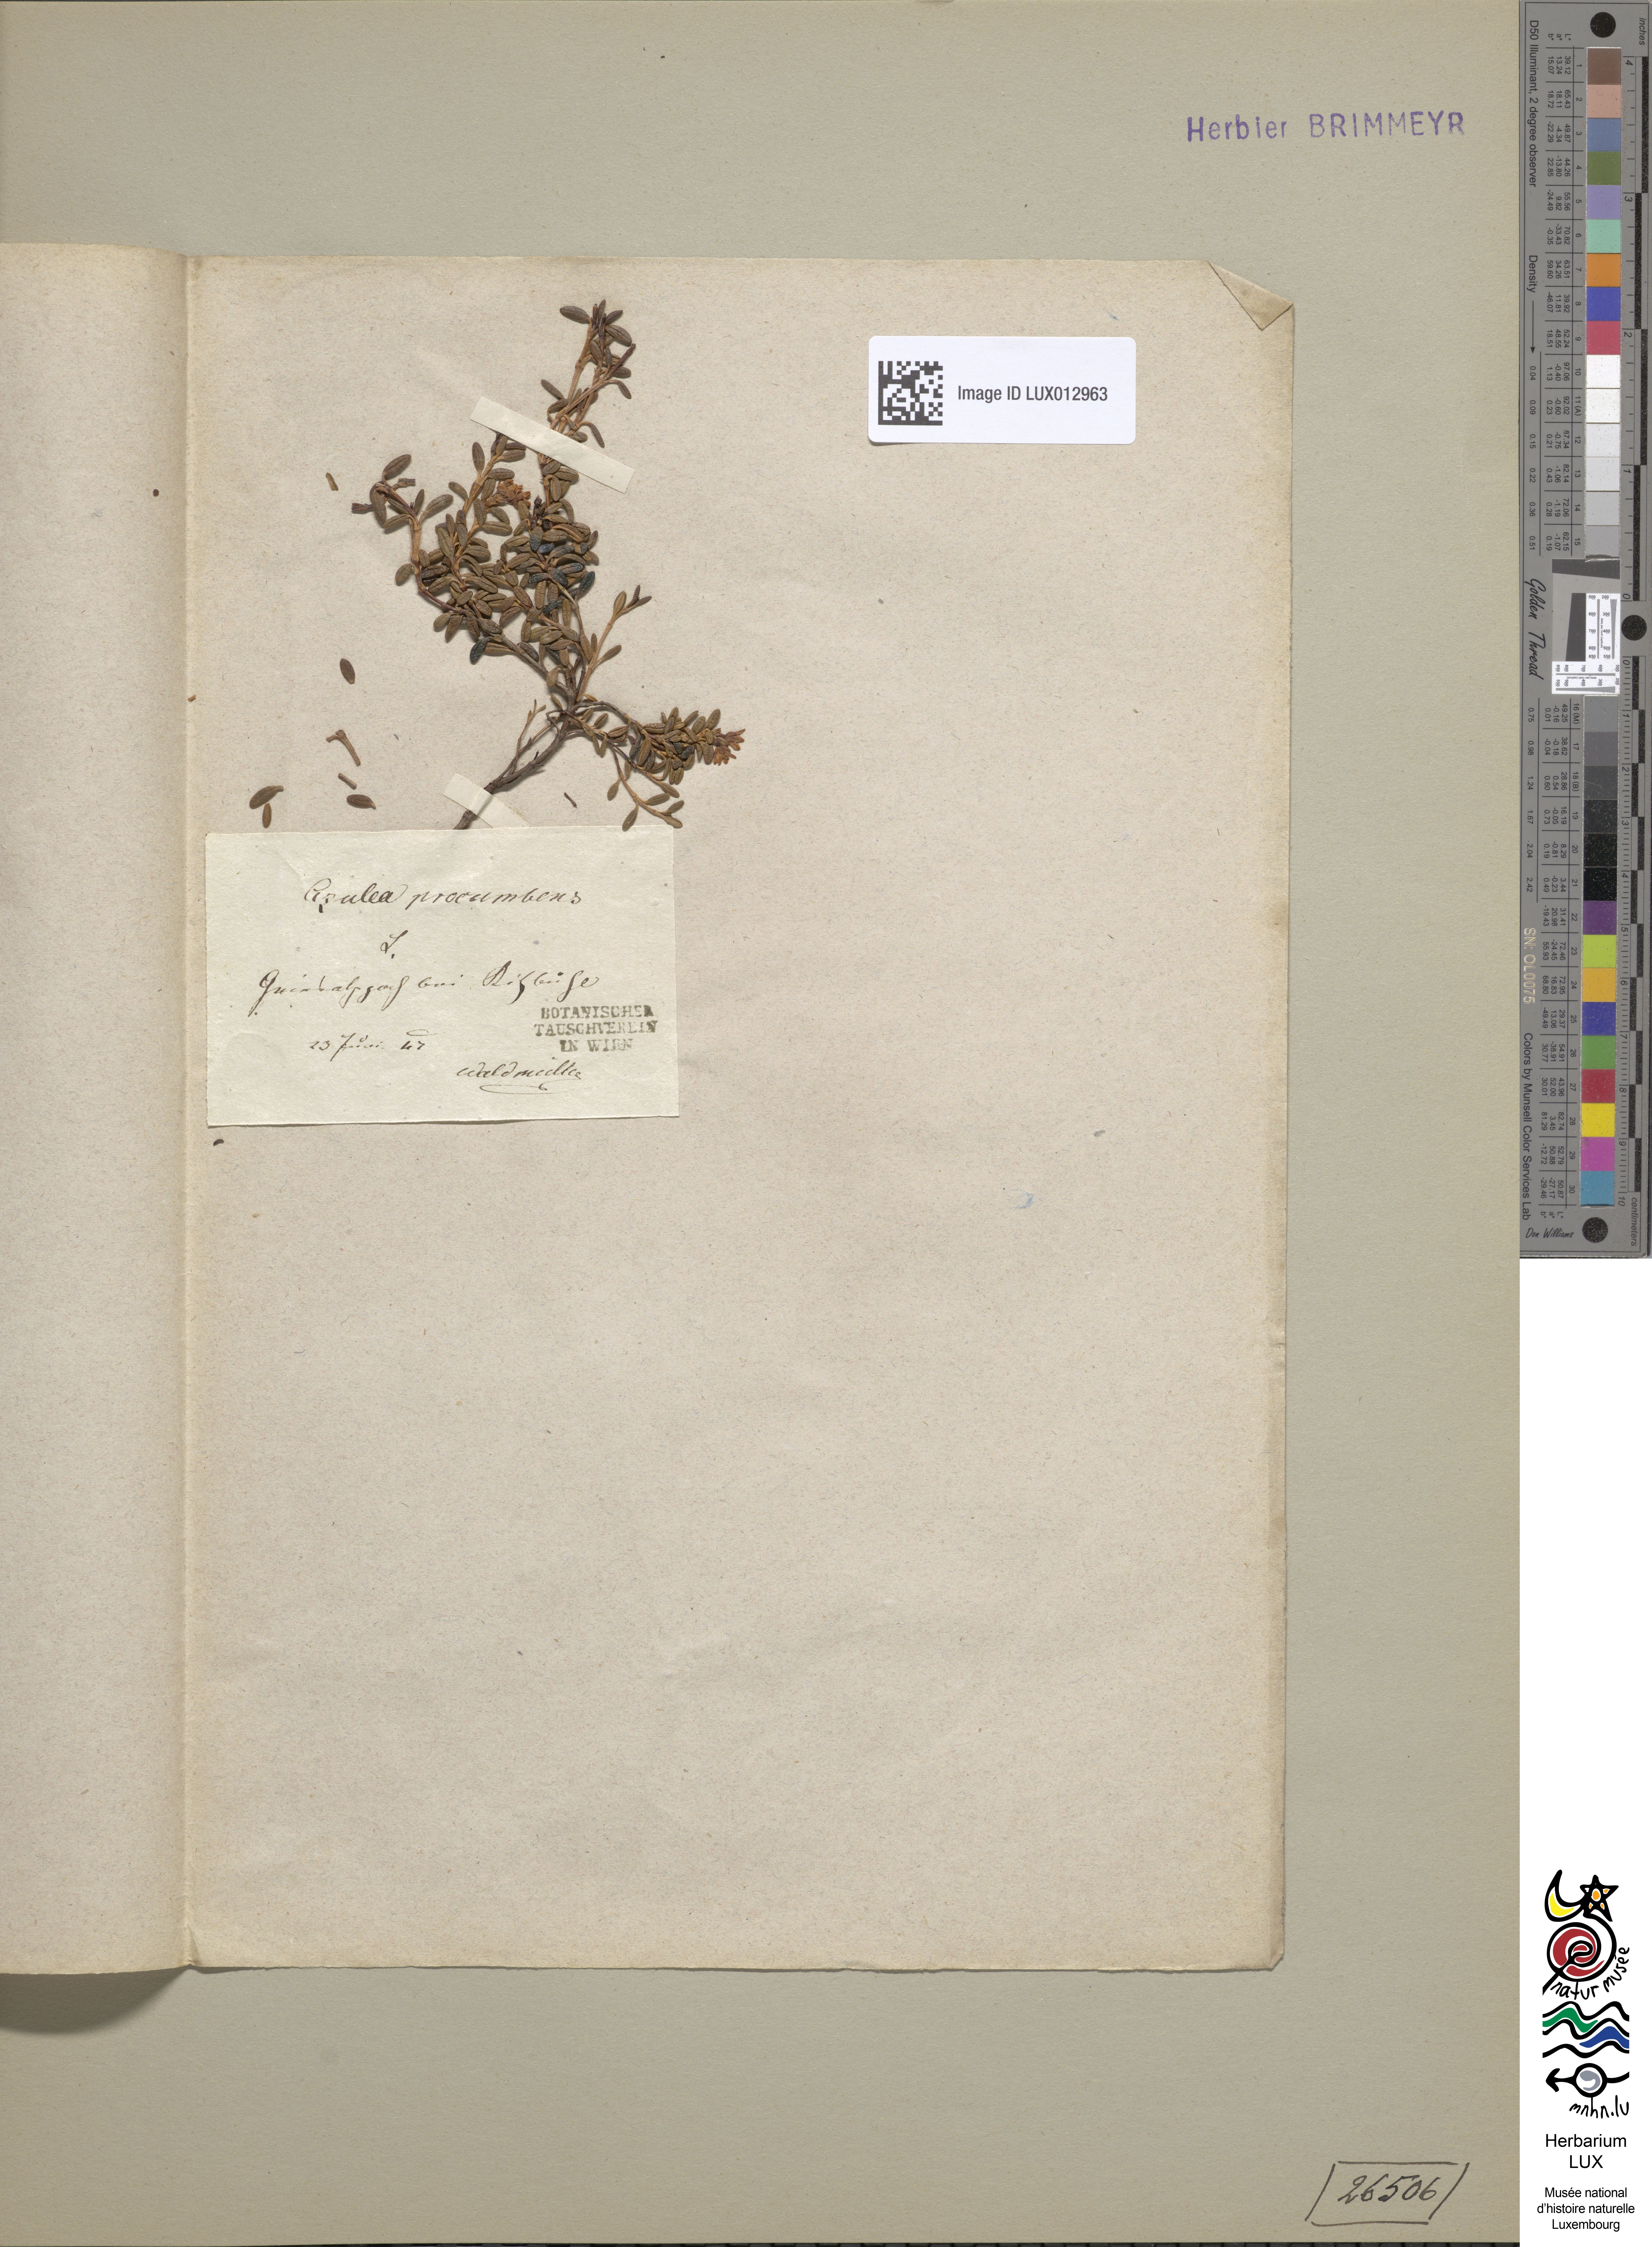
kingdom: Plantae
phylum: Tracheophyta
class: Magnoliopsida
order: Ericales
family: Ericaceae
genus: Kalmia
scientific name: Kalmia procumbens
